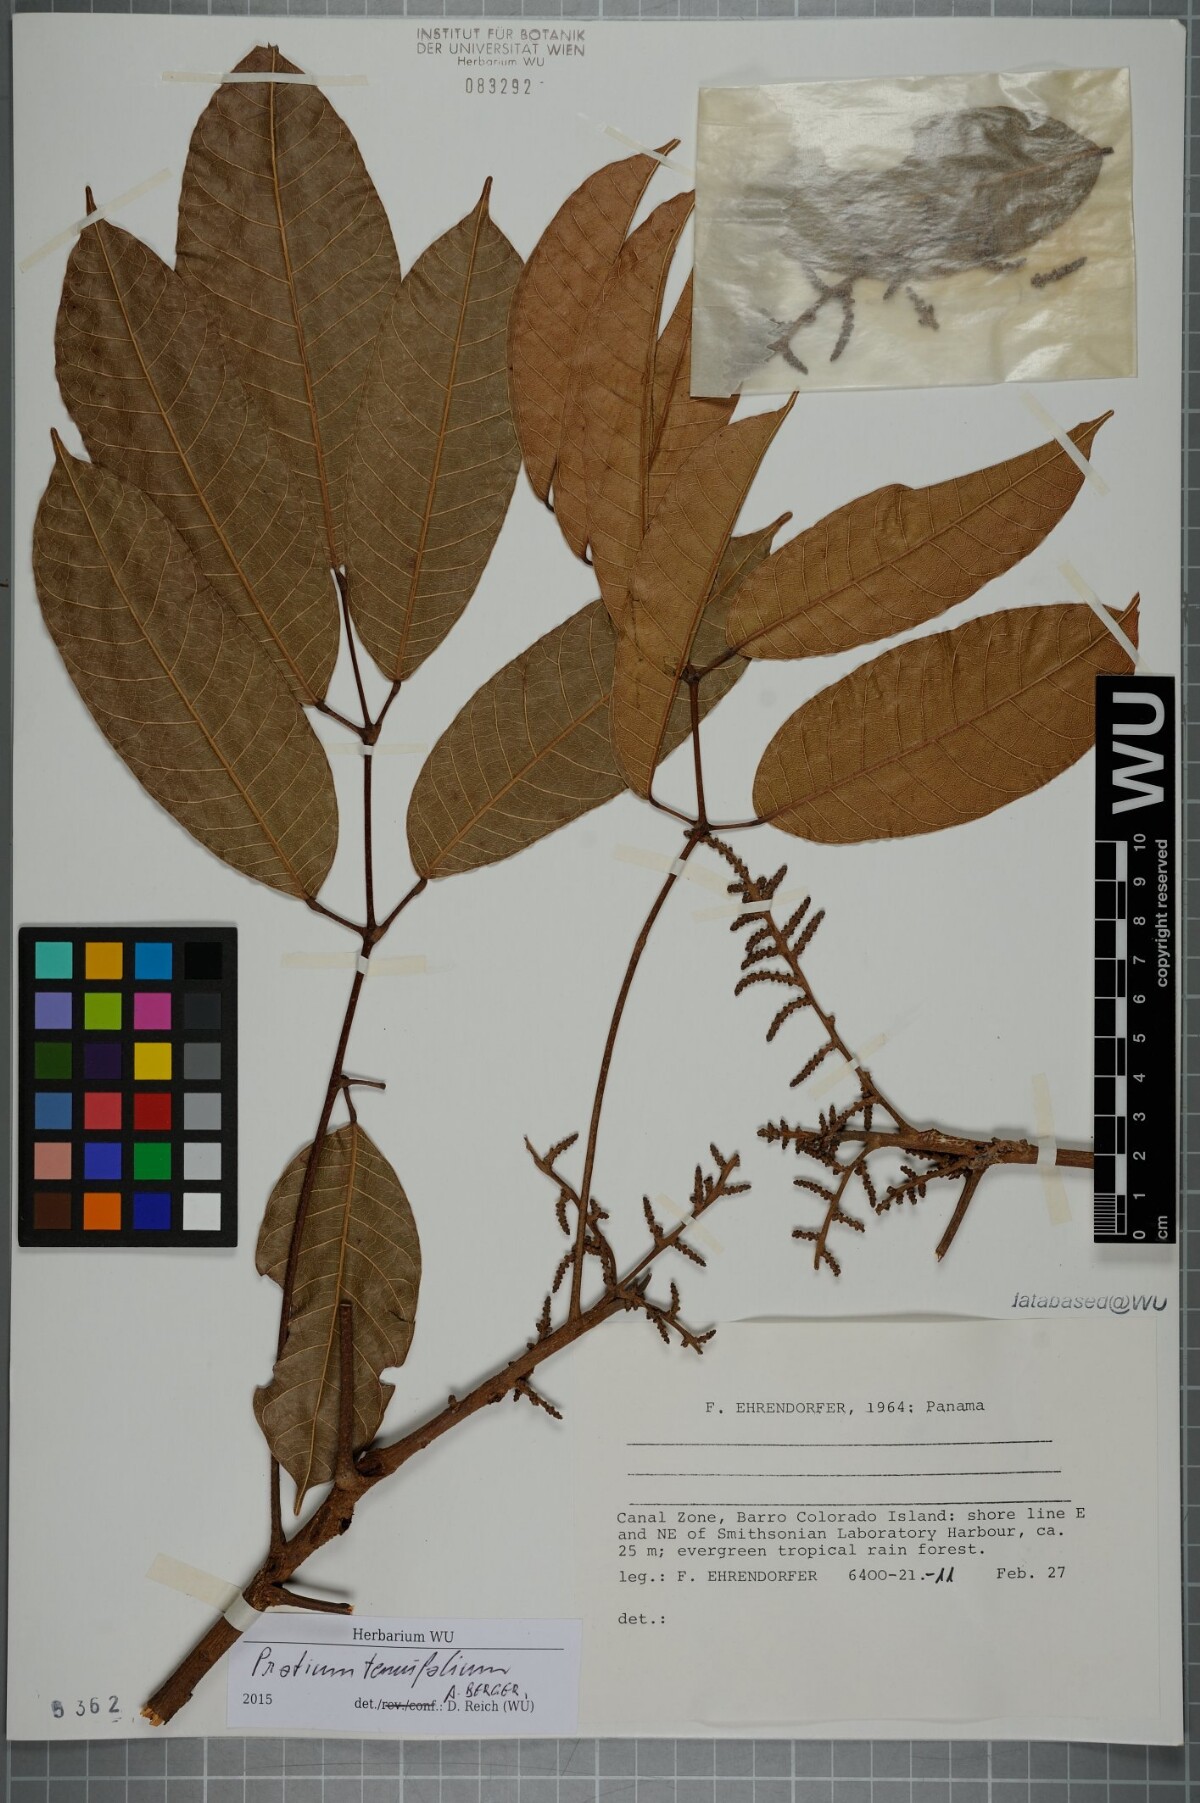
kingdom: Plantae
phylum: Tracheophyta
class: Magnoliopsida
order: Sapindales
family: Burseraceae
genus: Protium
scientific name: Protium tenuifolium
